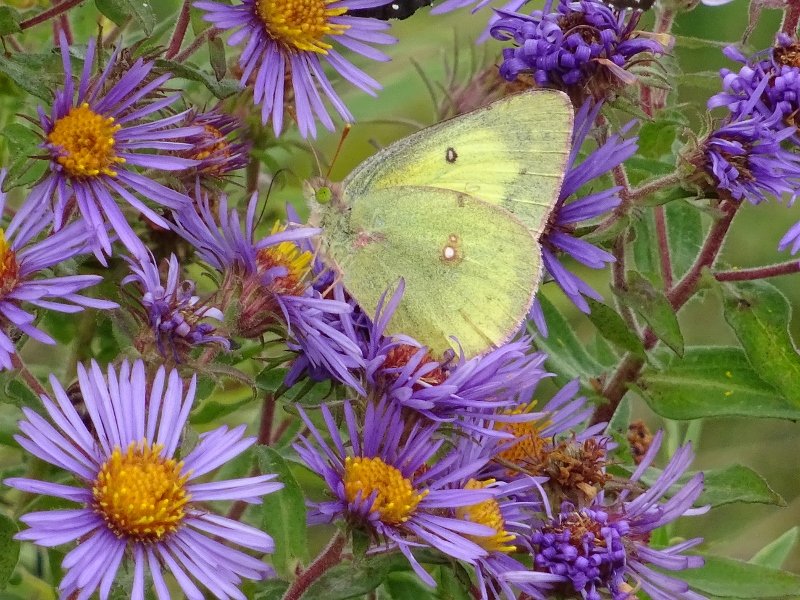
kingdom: Animalia
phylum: Arthropoda
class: Insecta
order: Lepidoptera
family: Pieridae
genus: Colias
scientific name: Colias philodice
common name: Clouded Sulphur
